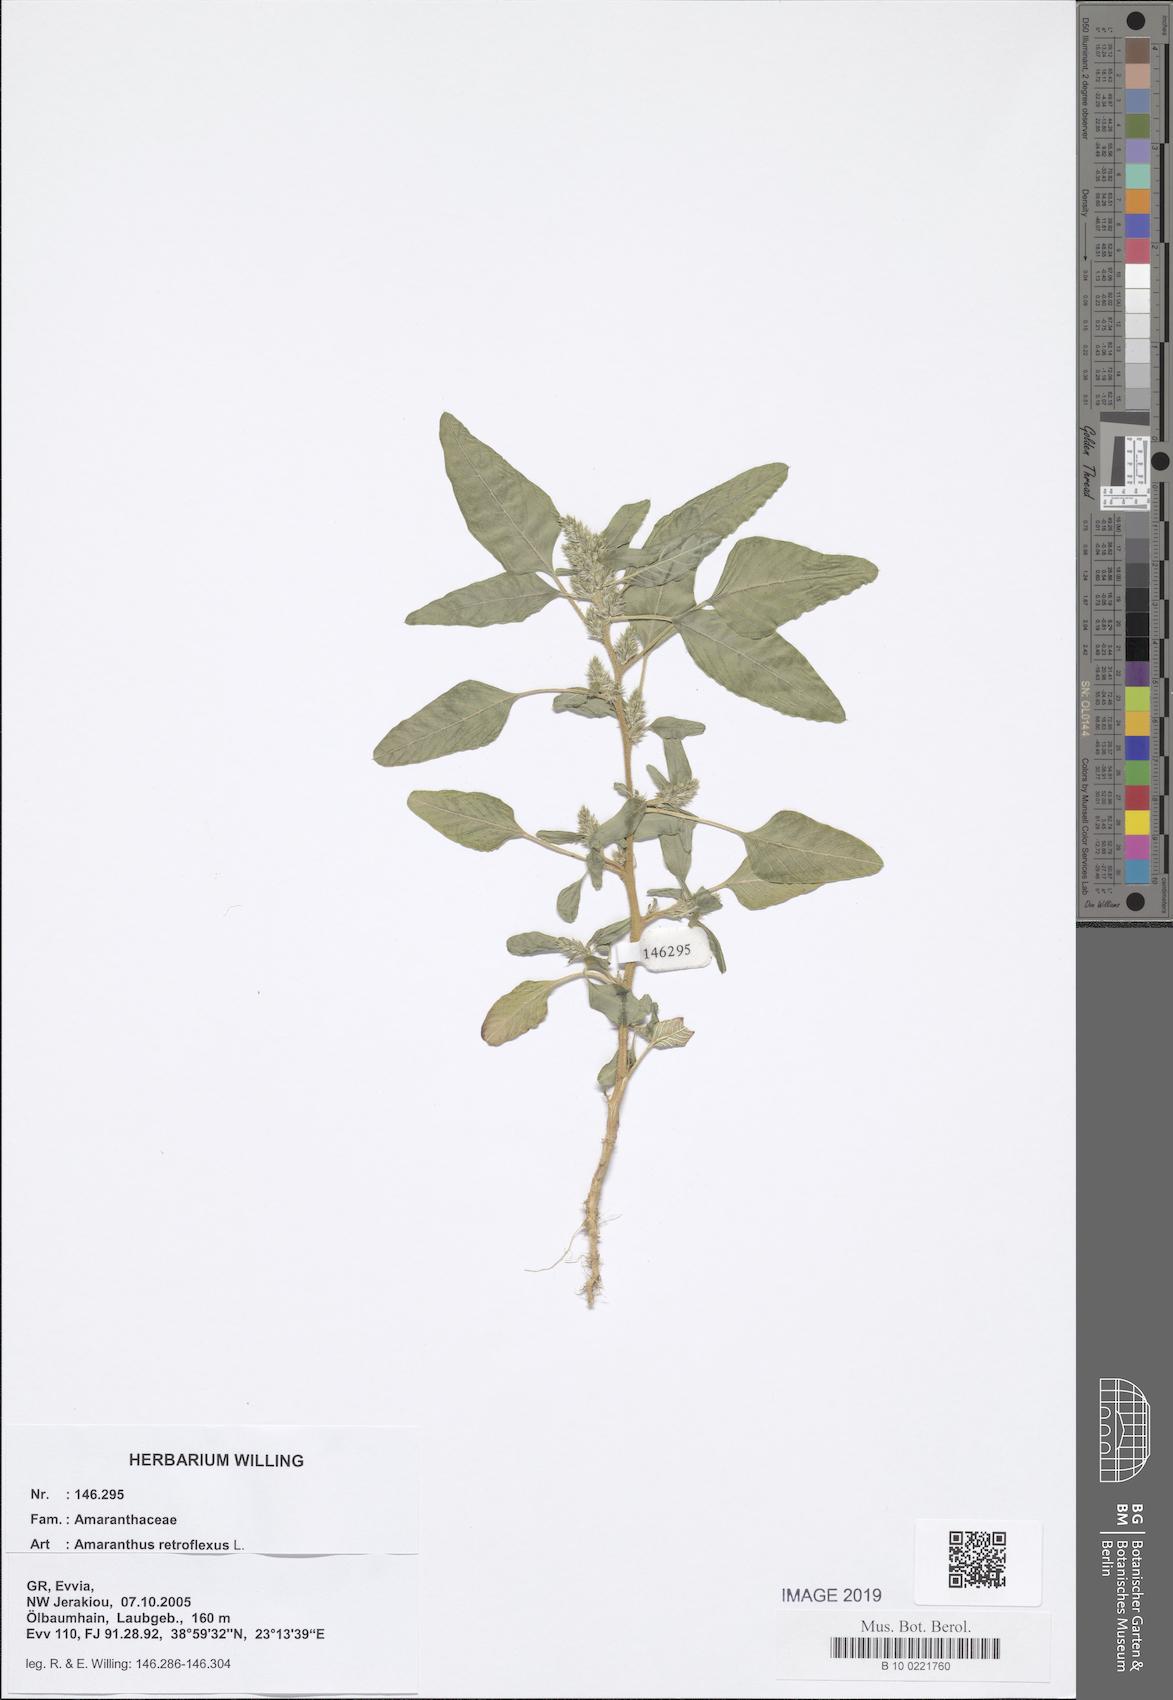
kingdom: Plantae
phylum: Tracheophyta
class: Magnoliopsida
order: Caryophyllales
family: Amaranthaceae
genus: Amaranthus
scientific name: Amaranthus retroflexus
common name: Redroot amaranth
